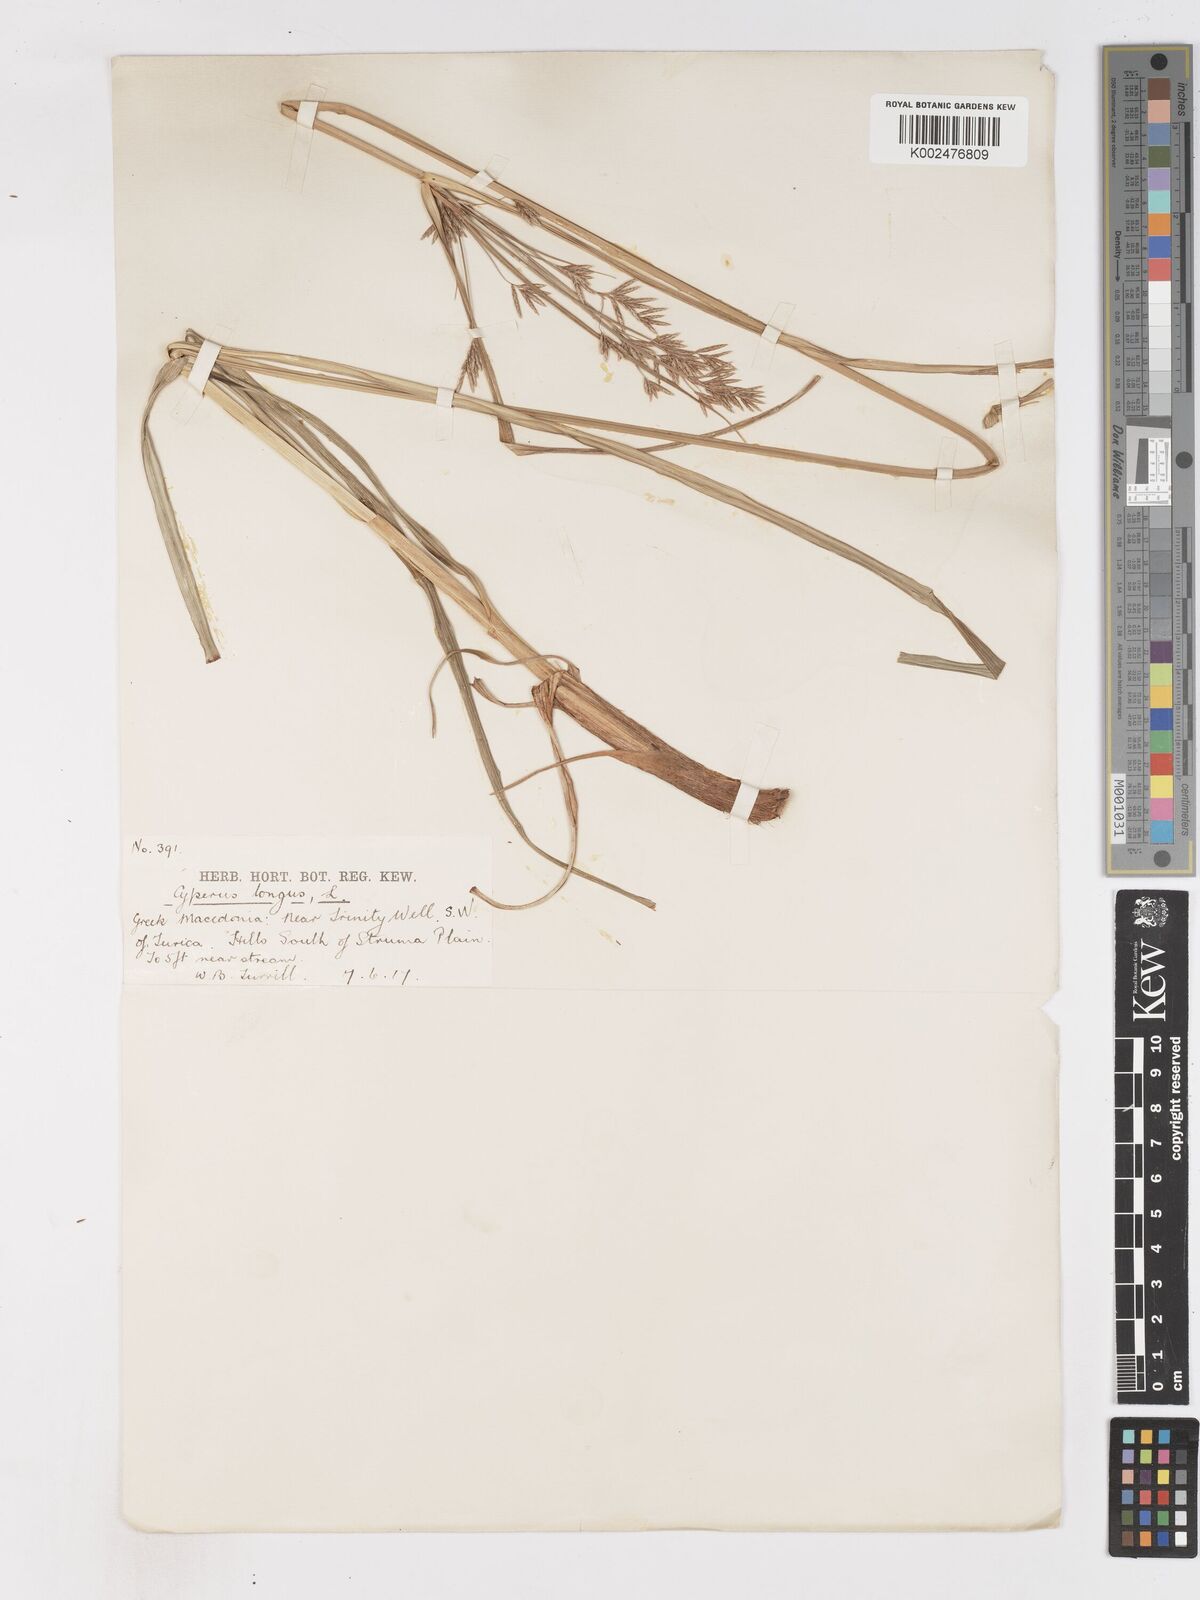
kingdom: Plantae
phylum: Tracheophyta
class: Liliopsida
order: Poales
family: Cyperaceae
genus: Cyperus
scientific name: Cyperus longus
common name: Galingale
